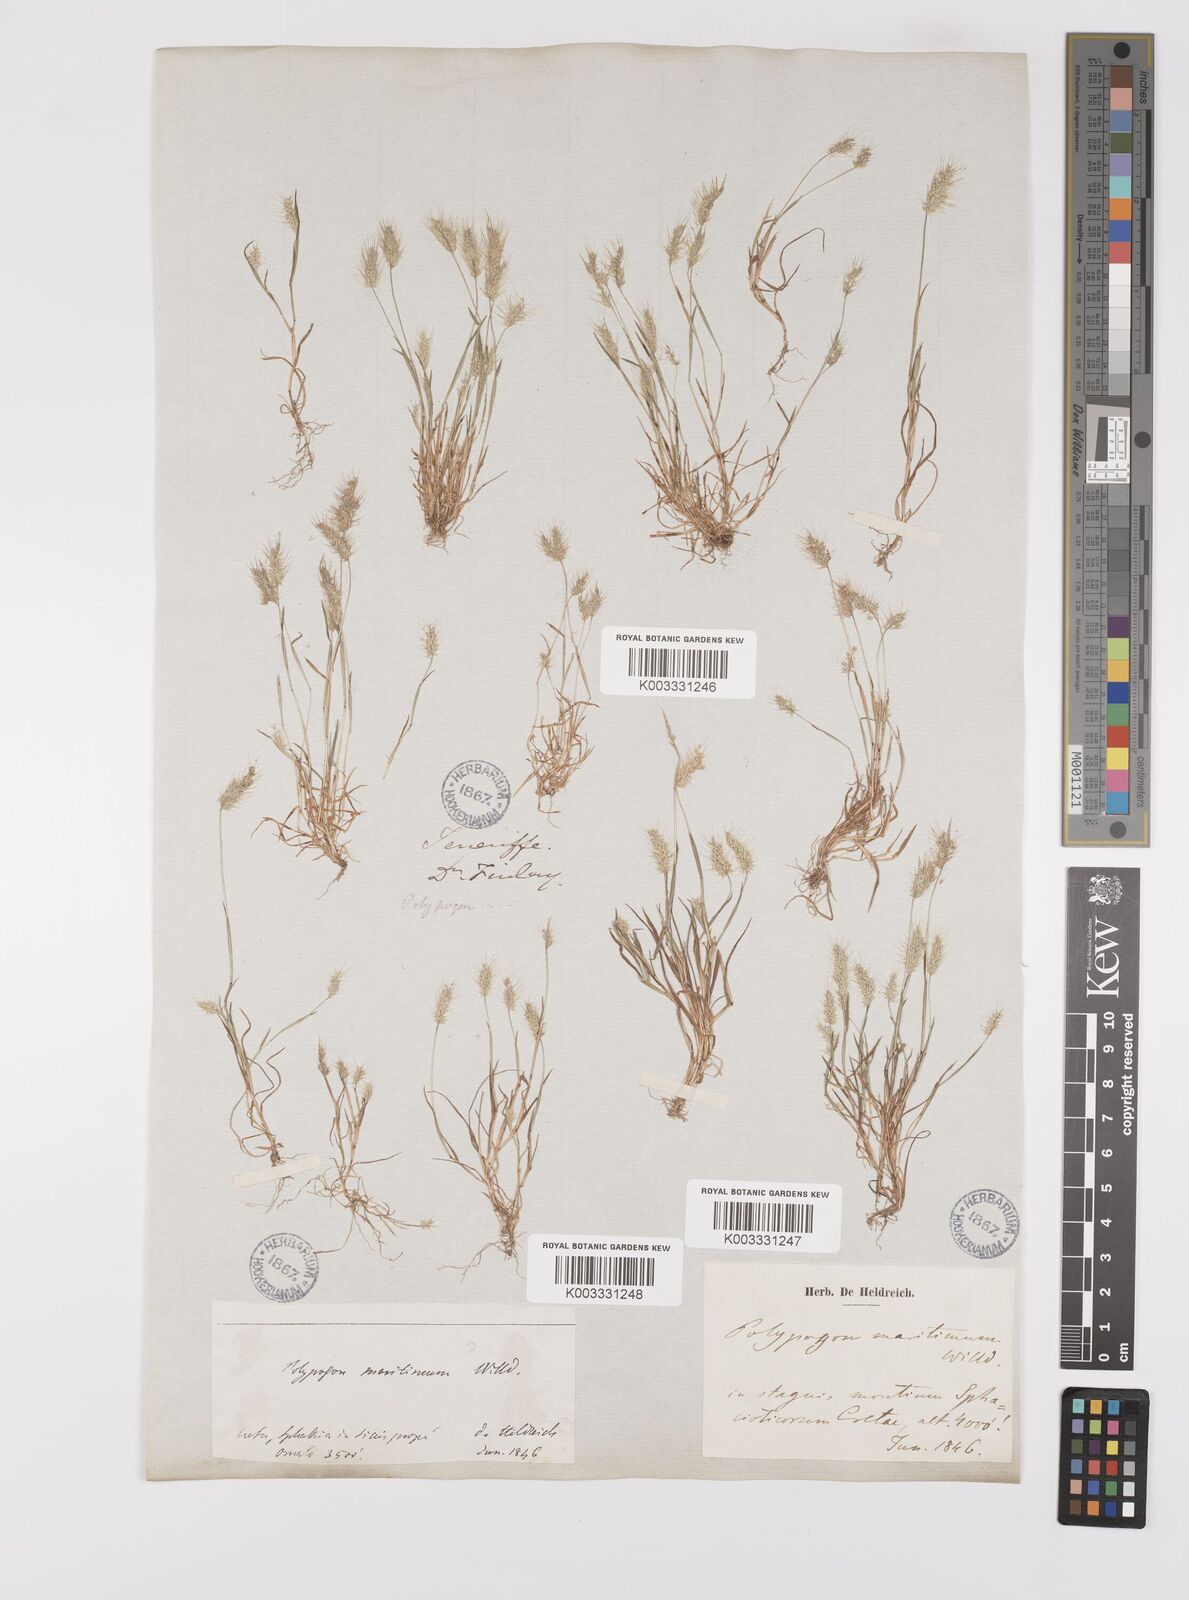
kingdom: Plantae
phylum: Tracheophyta
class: Liliopsida
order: Poales
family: Poaceae
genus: Polypogon
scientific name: Polypogon maritimus
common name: Mediterranean rabbitsfoot grass
